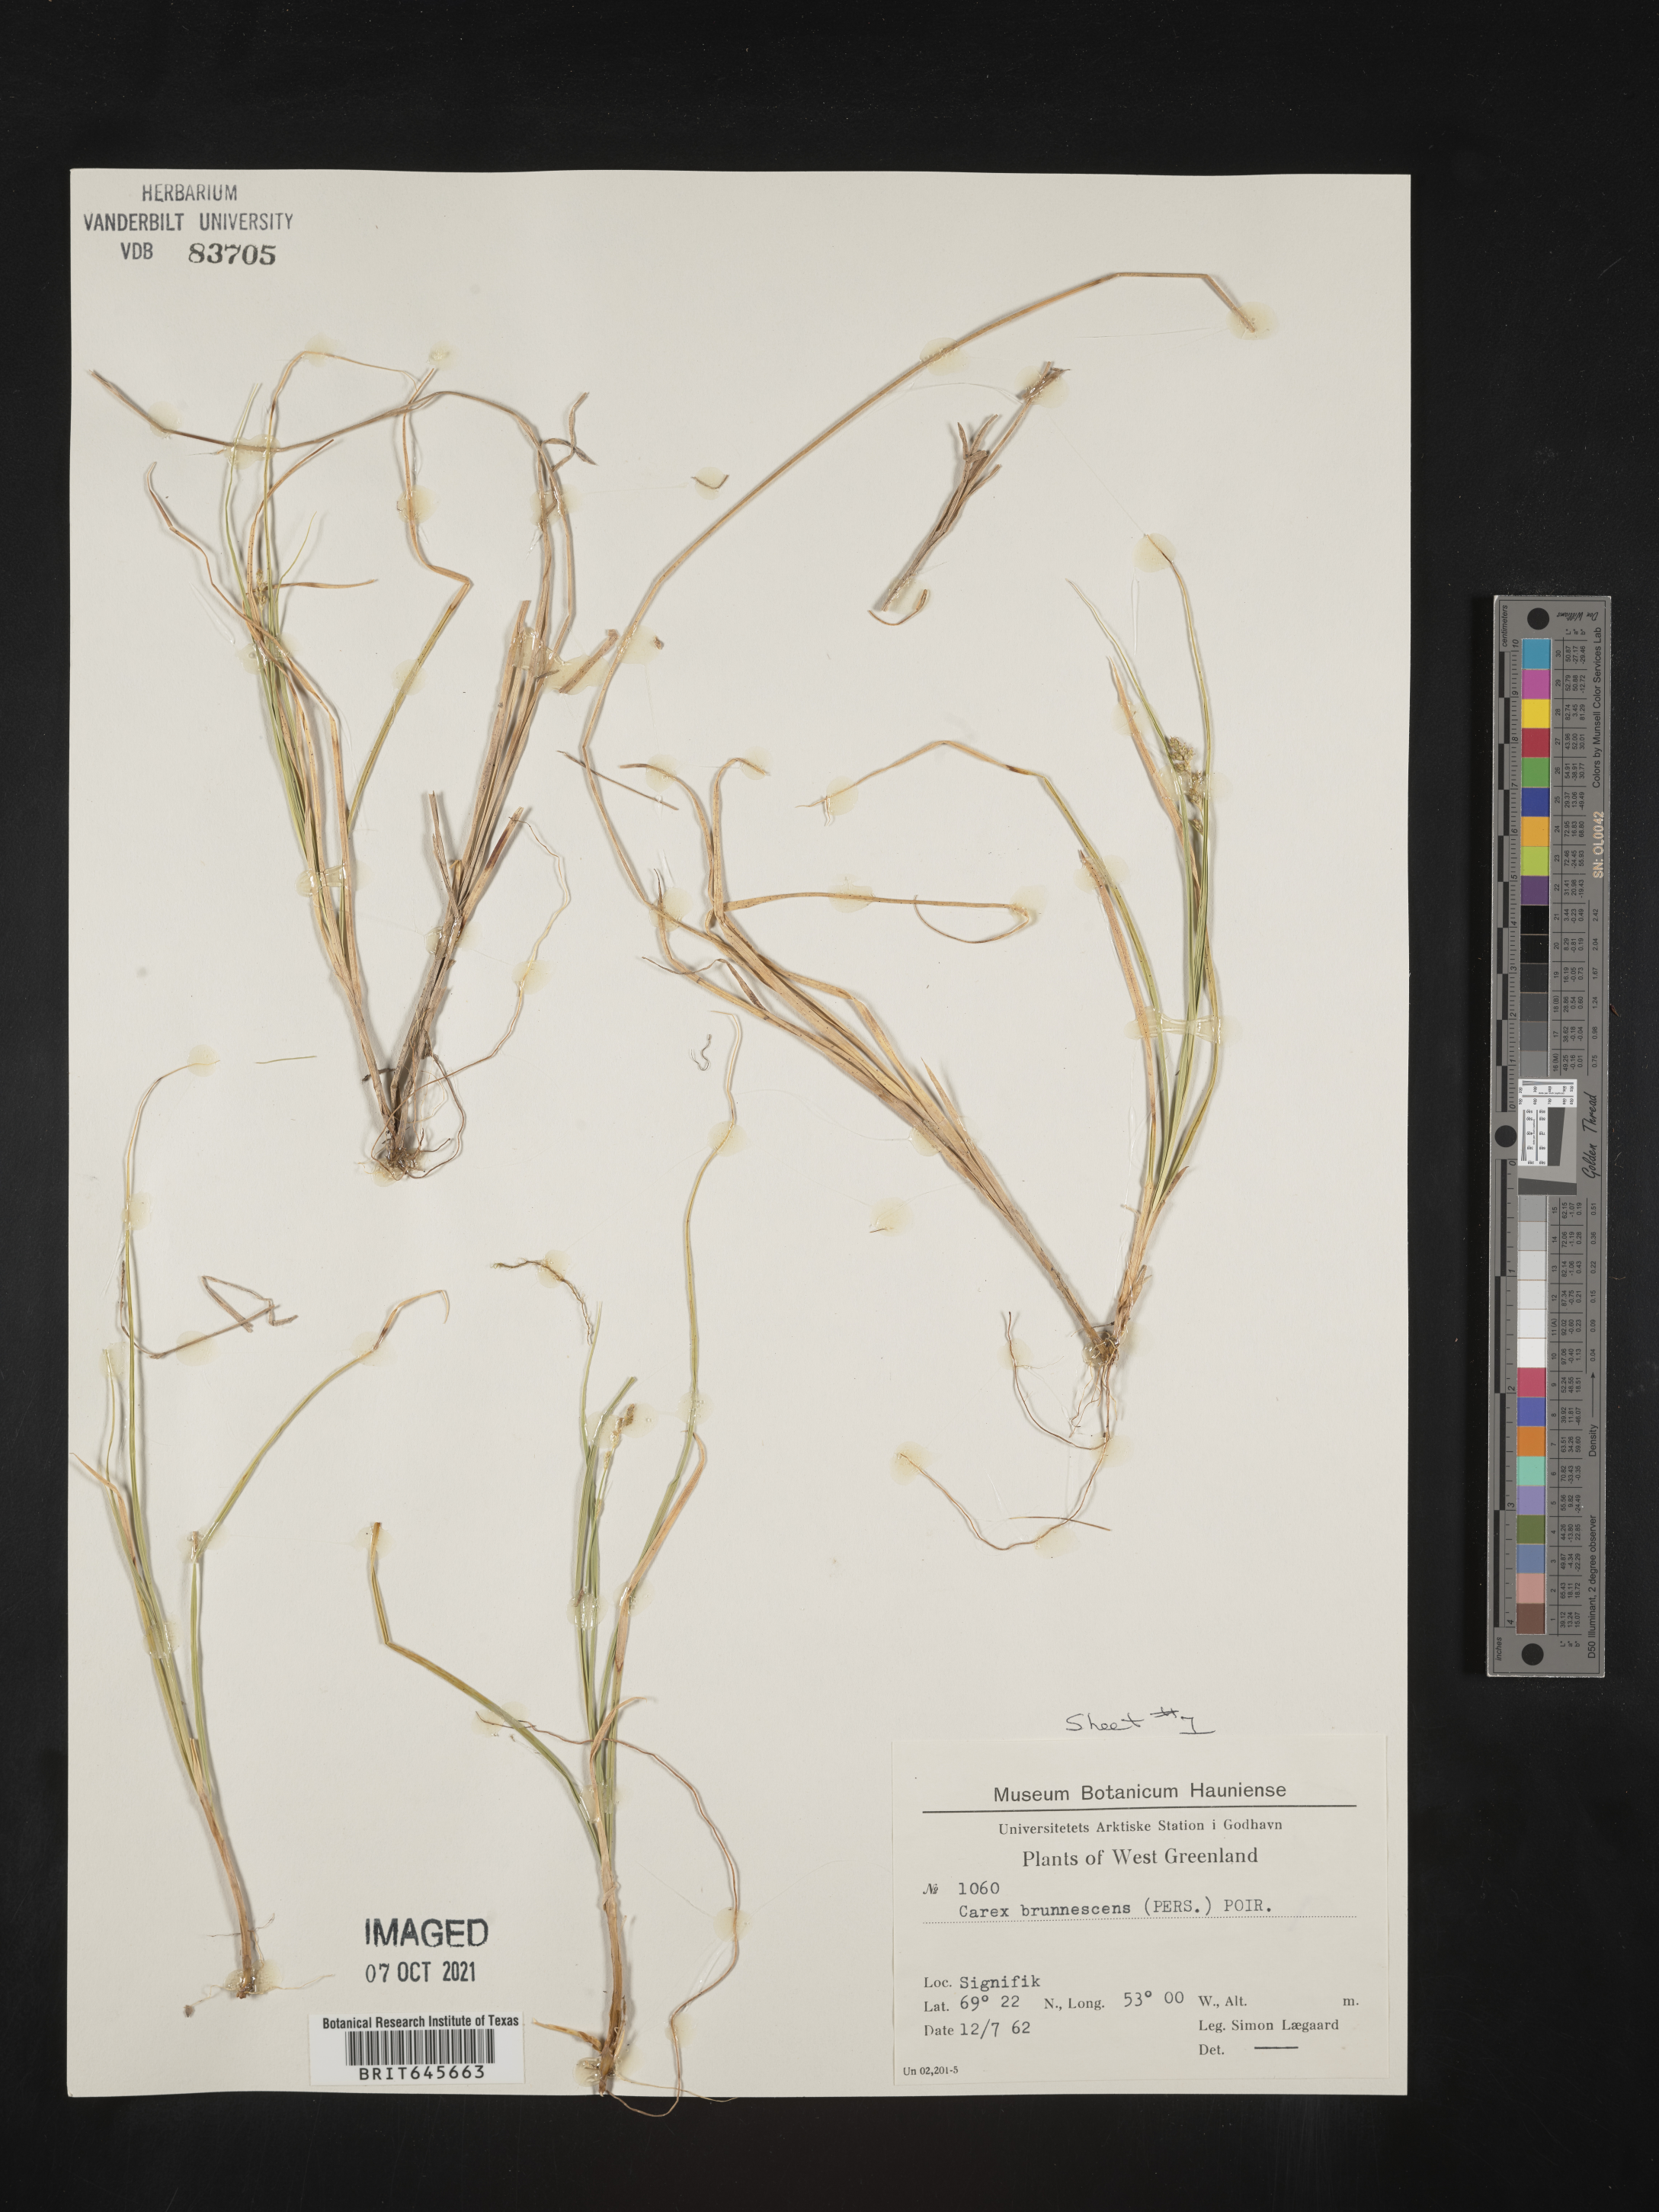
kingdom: Plantae
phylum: Tracheophyta
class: Liliopsida
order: Poales
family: Cyperaceae
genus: Carex
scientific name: Carex brunnescens
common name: Brown sedge
